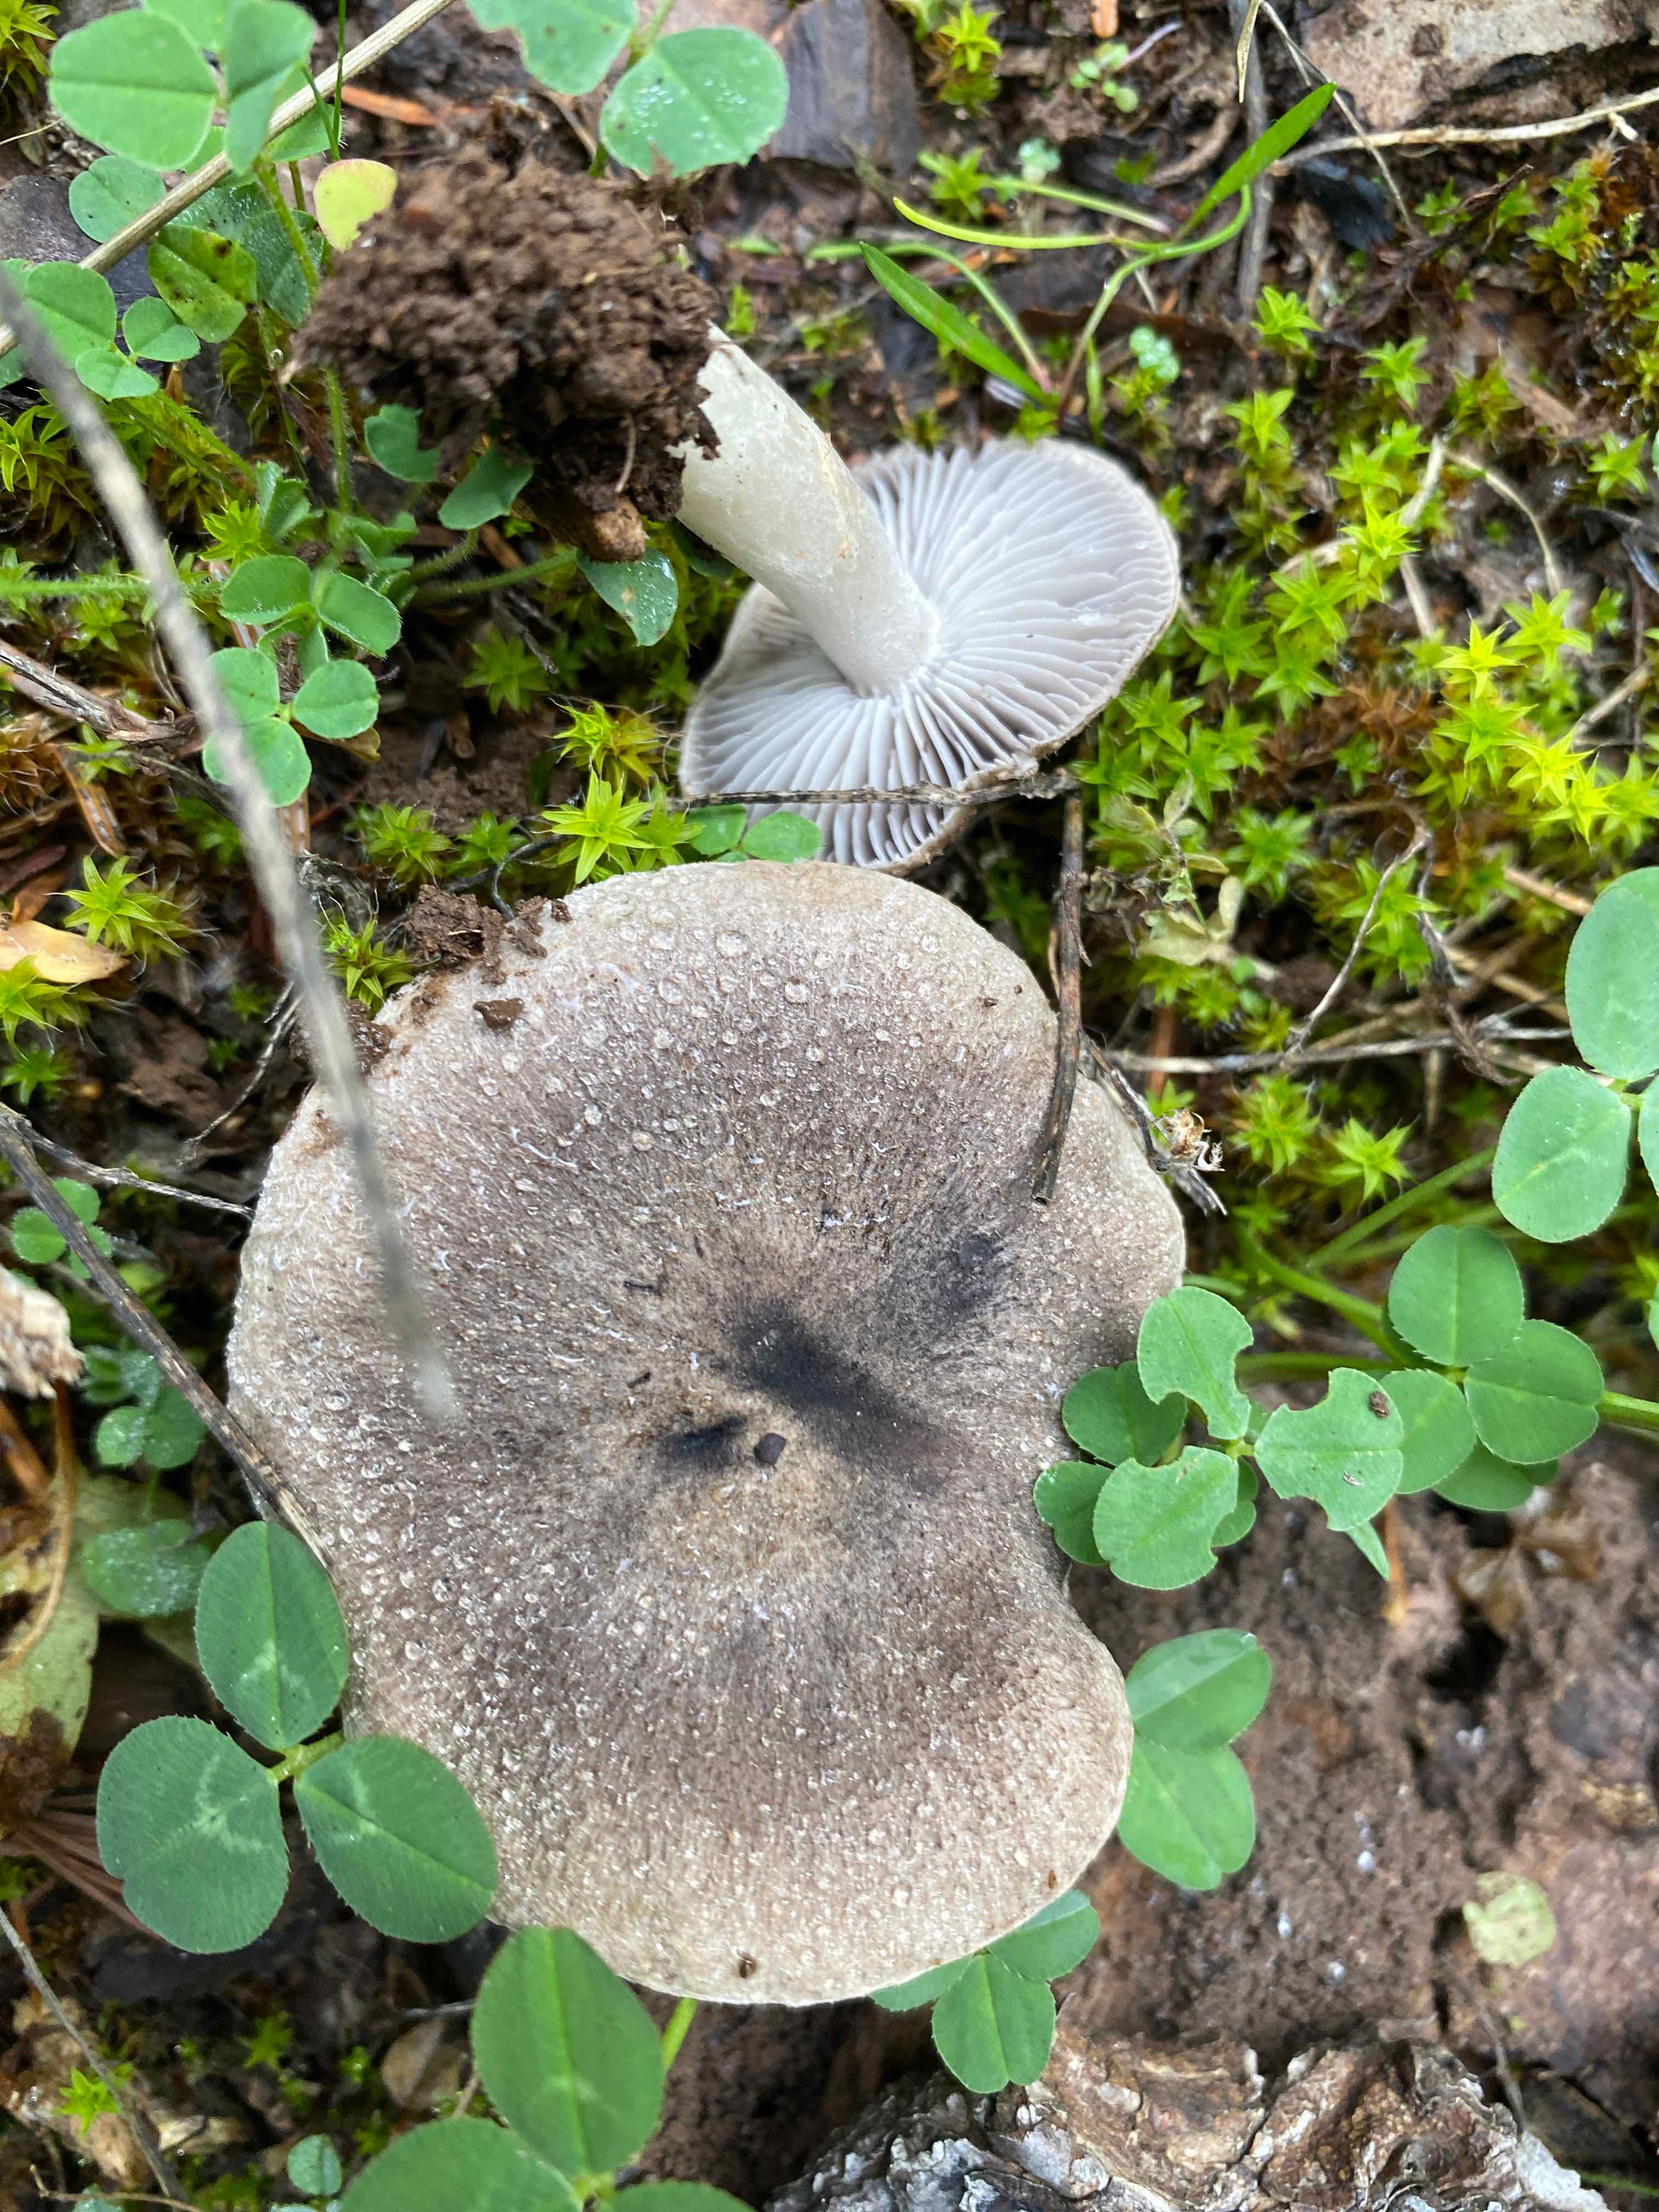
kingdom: Fungi
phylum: Basidiomycota
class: Agaricomycetes
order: Agaricales
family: Tricholomataceae
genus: Tricholoma
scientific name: Tricholoma terreum
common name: jordfarvet ridderhat
